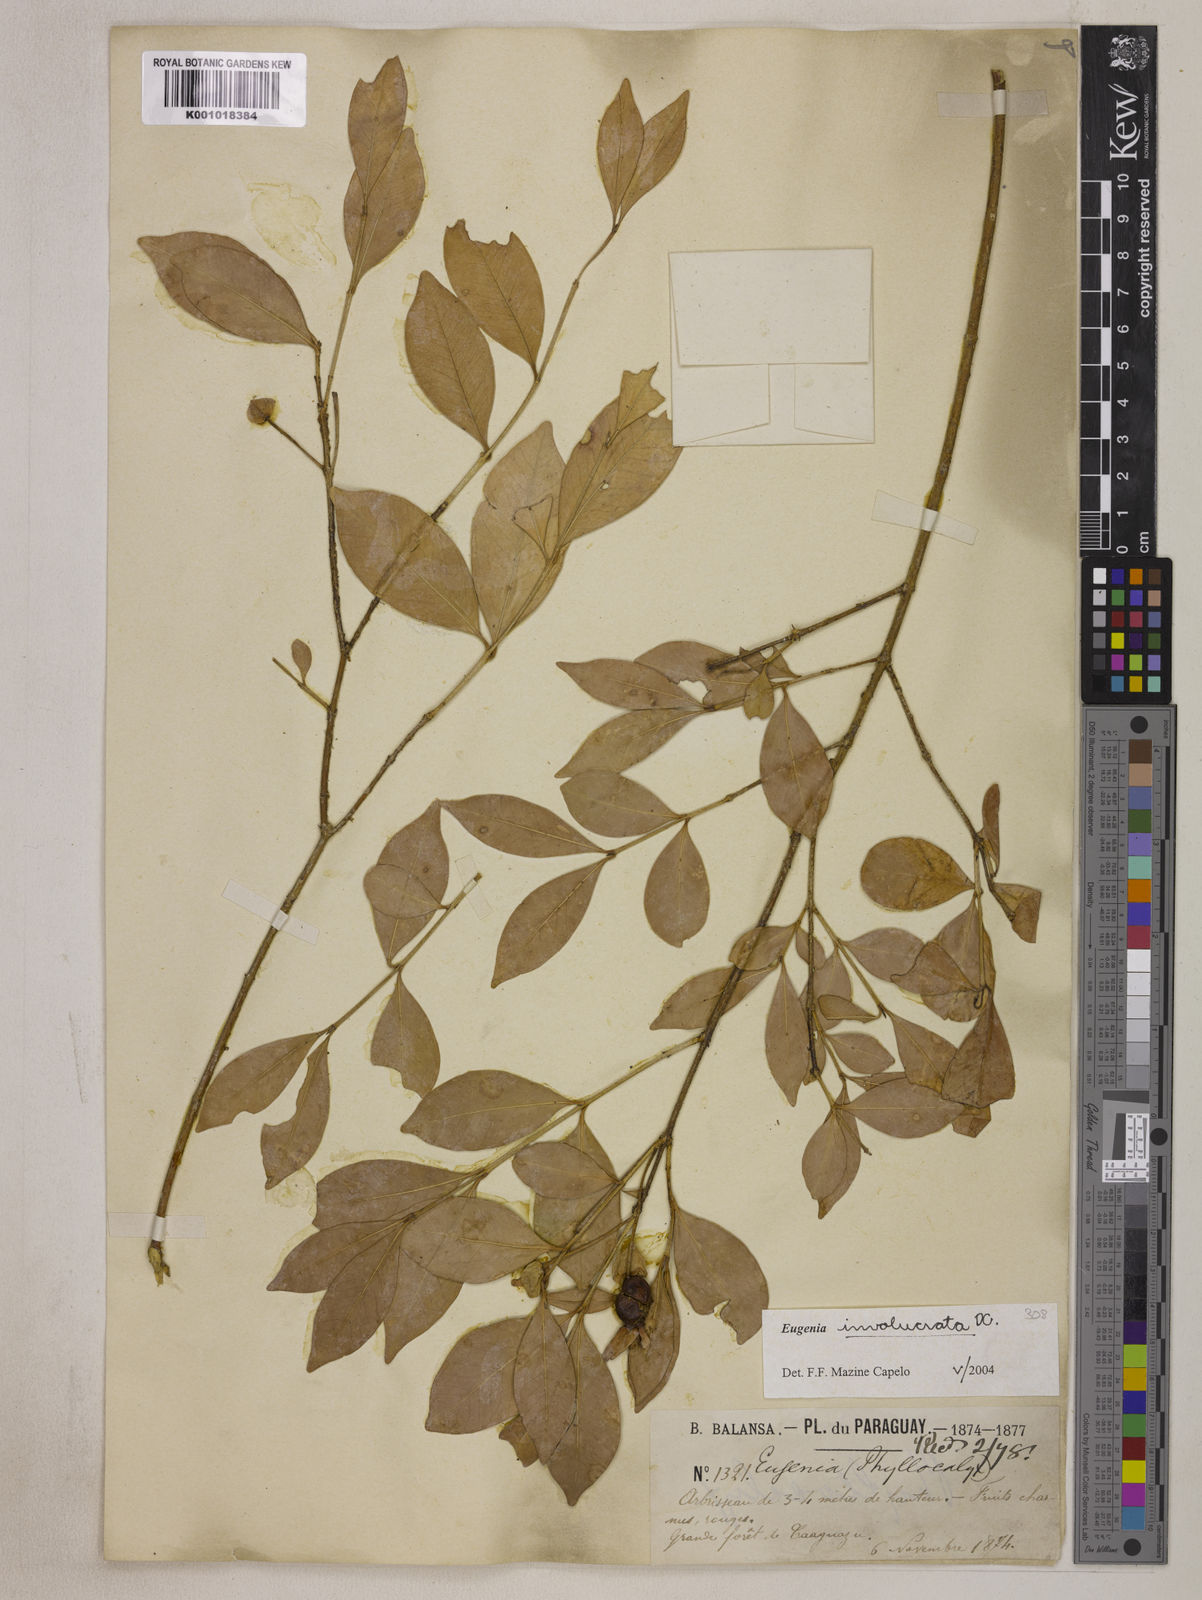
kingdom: Plantae
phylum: Tracheophyta
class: Magnoliopsida
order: Myrtales
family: Myrtaceae
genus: Eugenia
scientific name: Eugenia involucrata
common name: Cherry-of-the-rio grande
